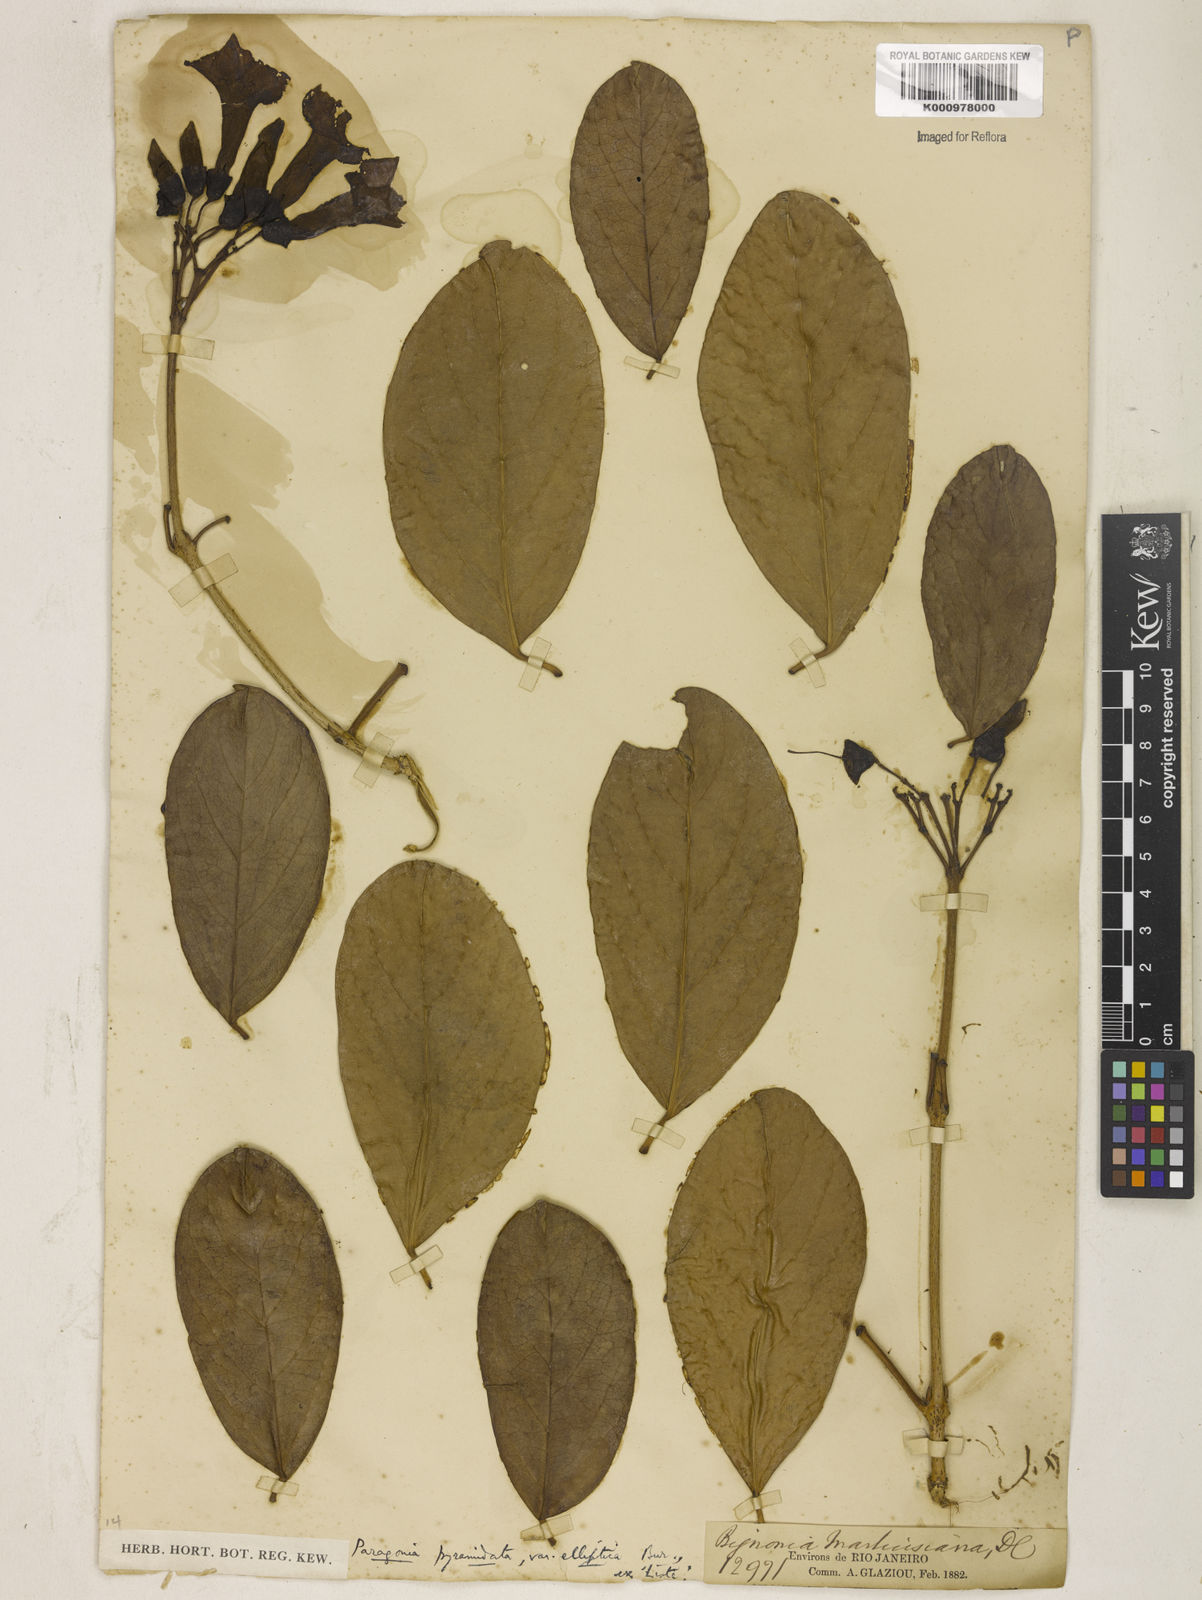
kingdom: Plantae
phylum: Tracheophyta
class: Magnoliopsida
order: Lamiales
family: Bignoniaceae
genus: Tanaecium
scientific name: Tanaecium pyramidatum
